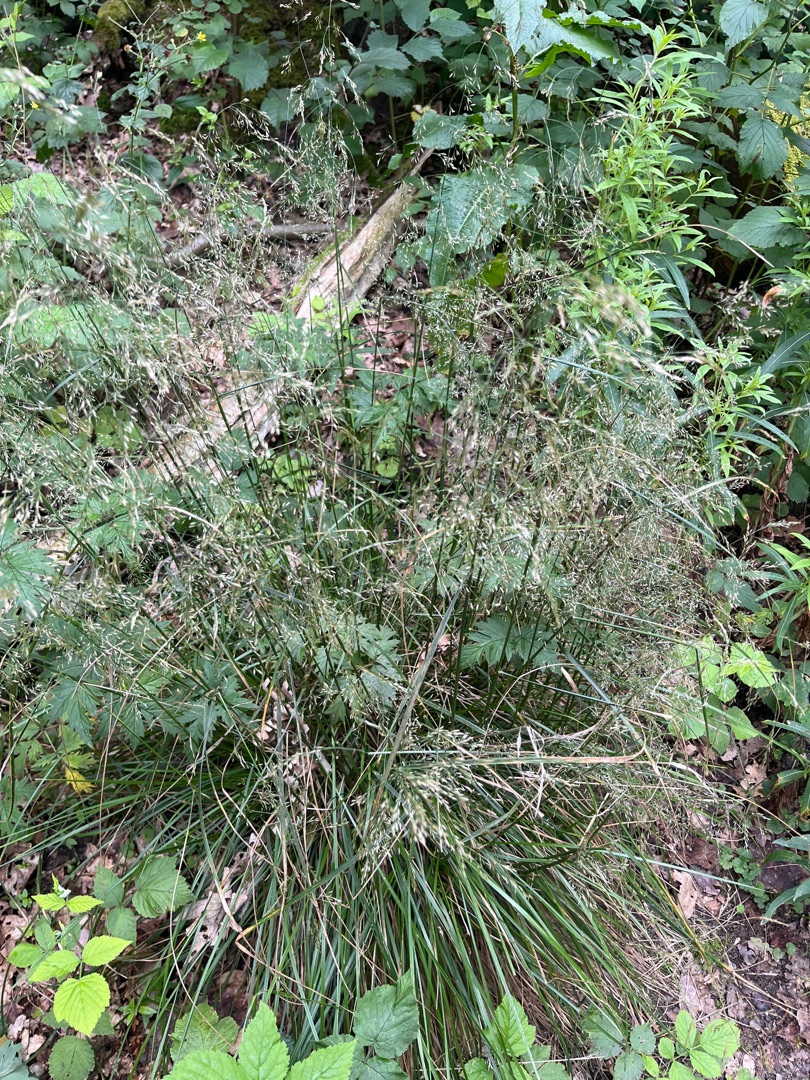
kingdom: Plantae
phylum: Tracheophyta
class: Liliopsida
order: Poales
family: Poaceae
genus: Deschampsia
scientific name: Deschampsia cespitosa
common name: Mose-bunke
